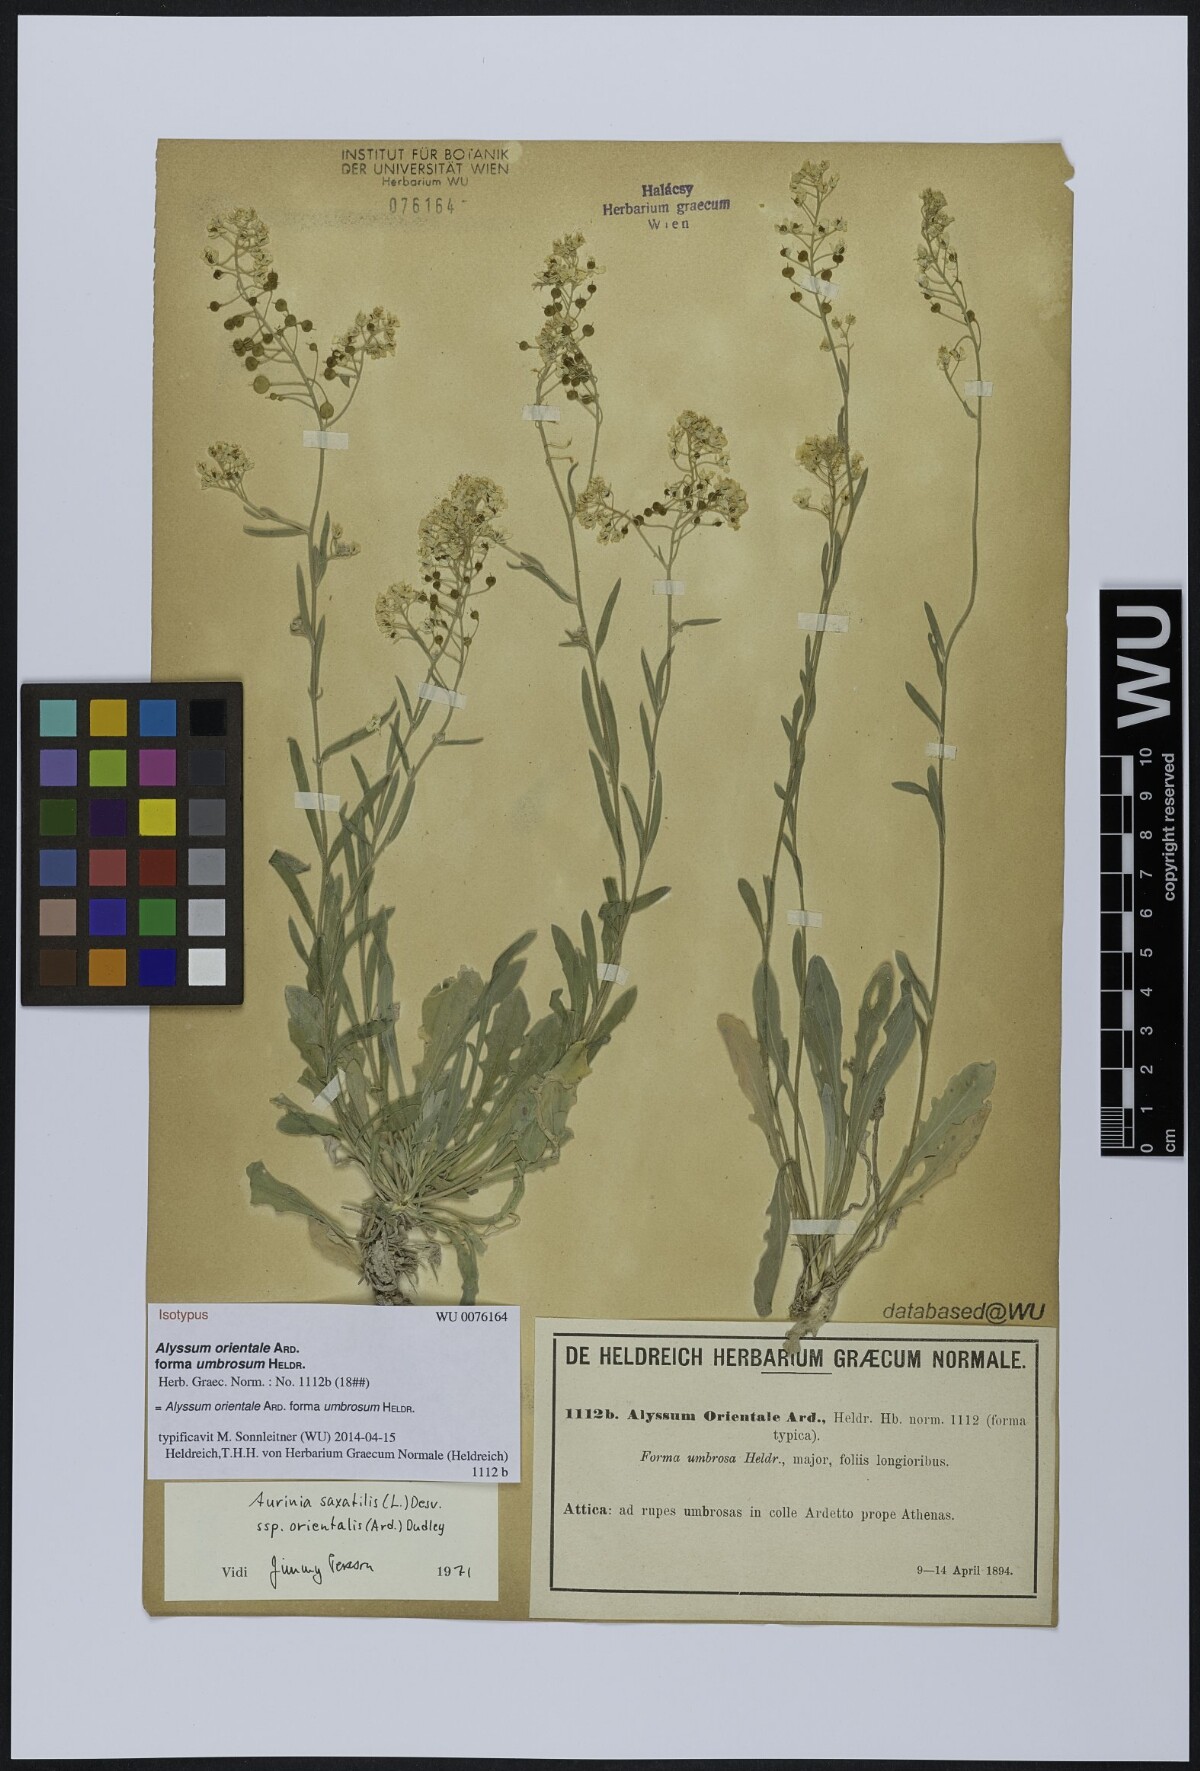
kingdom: Plantae
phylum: Tracheophyta
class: Magnoliopsida
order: Brassicales
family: Brassicaceae
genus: Aurinia
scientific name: Aurinia saxatilis
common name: Golden-tuft alyssum
